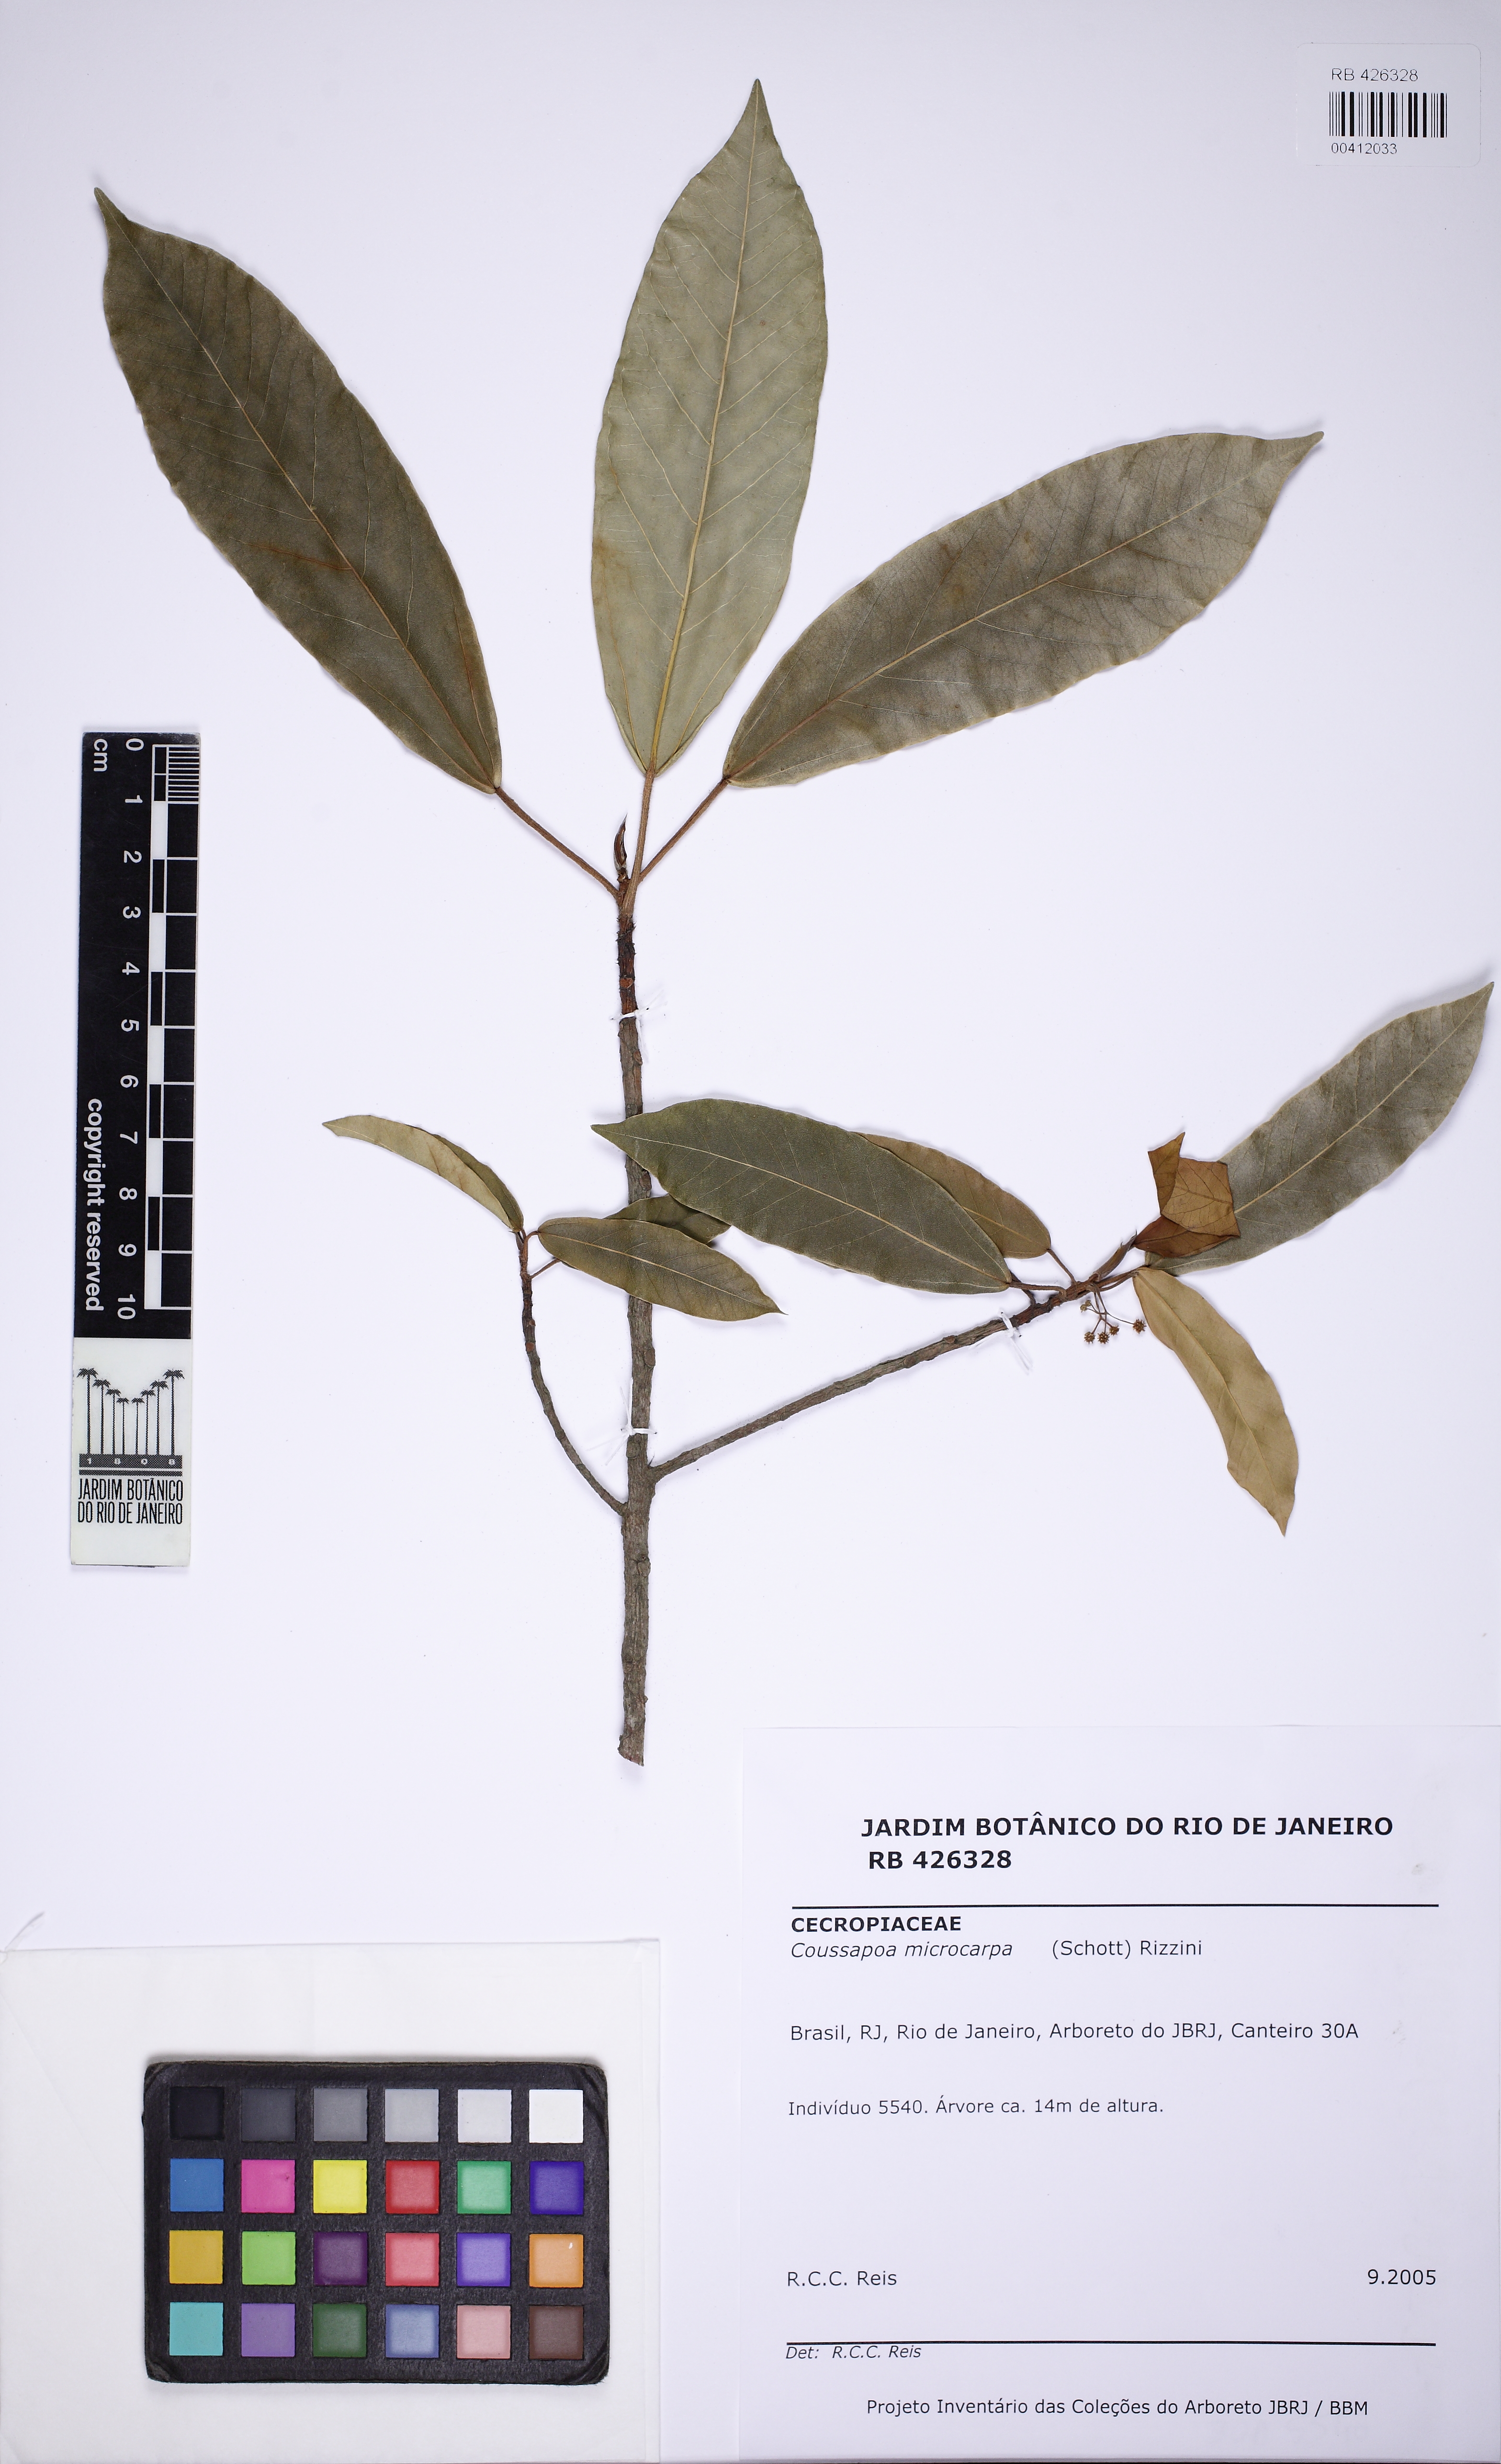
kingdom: Plantae
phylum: Tracheophyta
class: Magnoliopsida
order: Rosales
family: Urticaceae
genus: Coussapoa
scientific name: Coussapoa microcarpa
